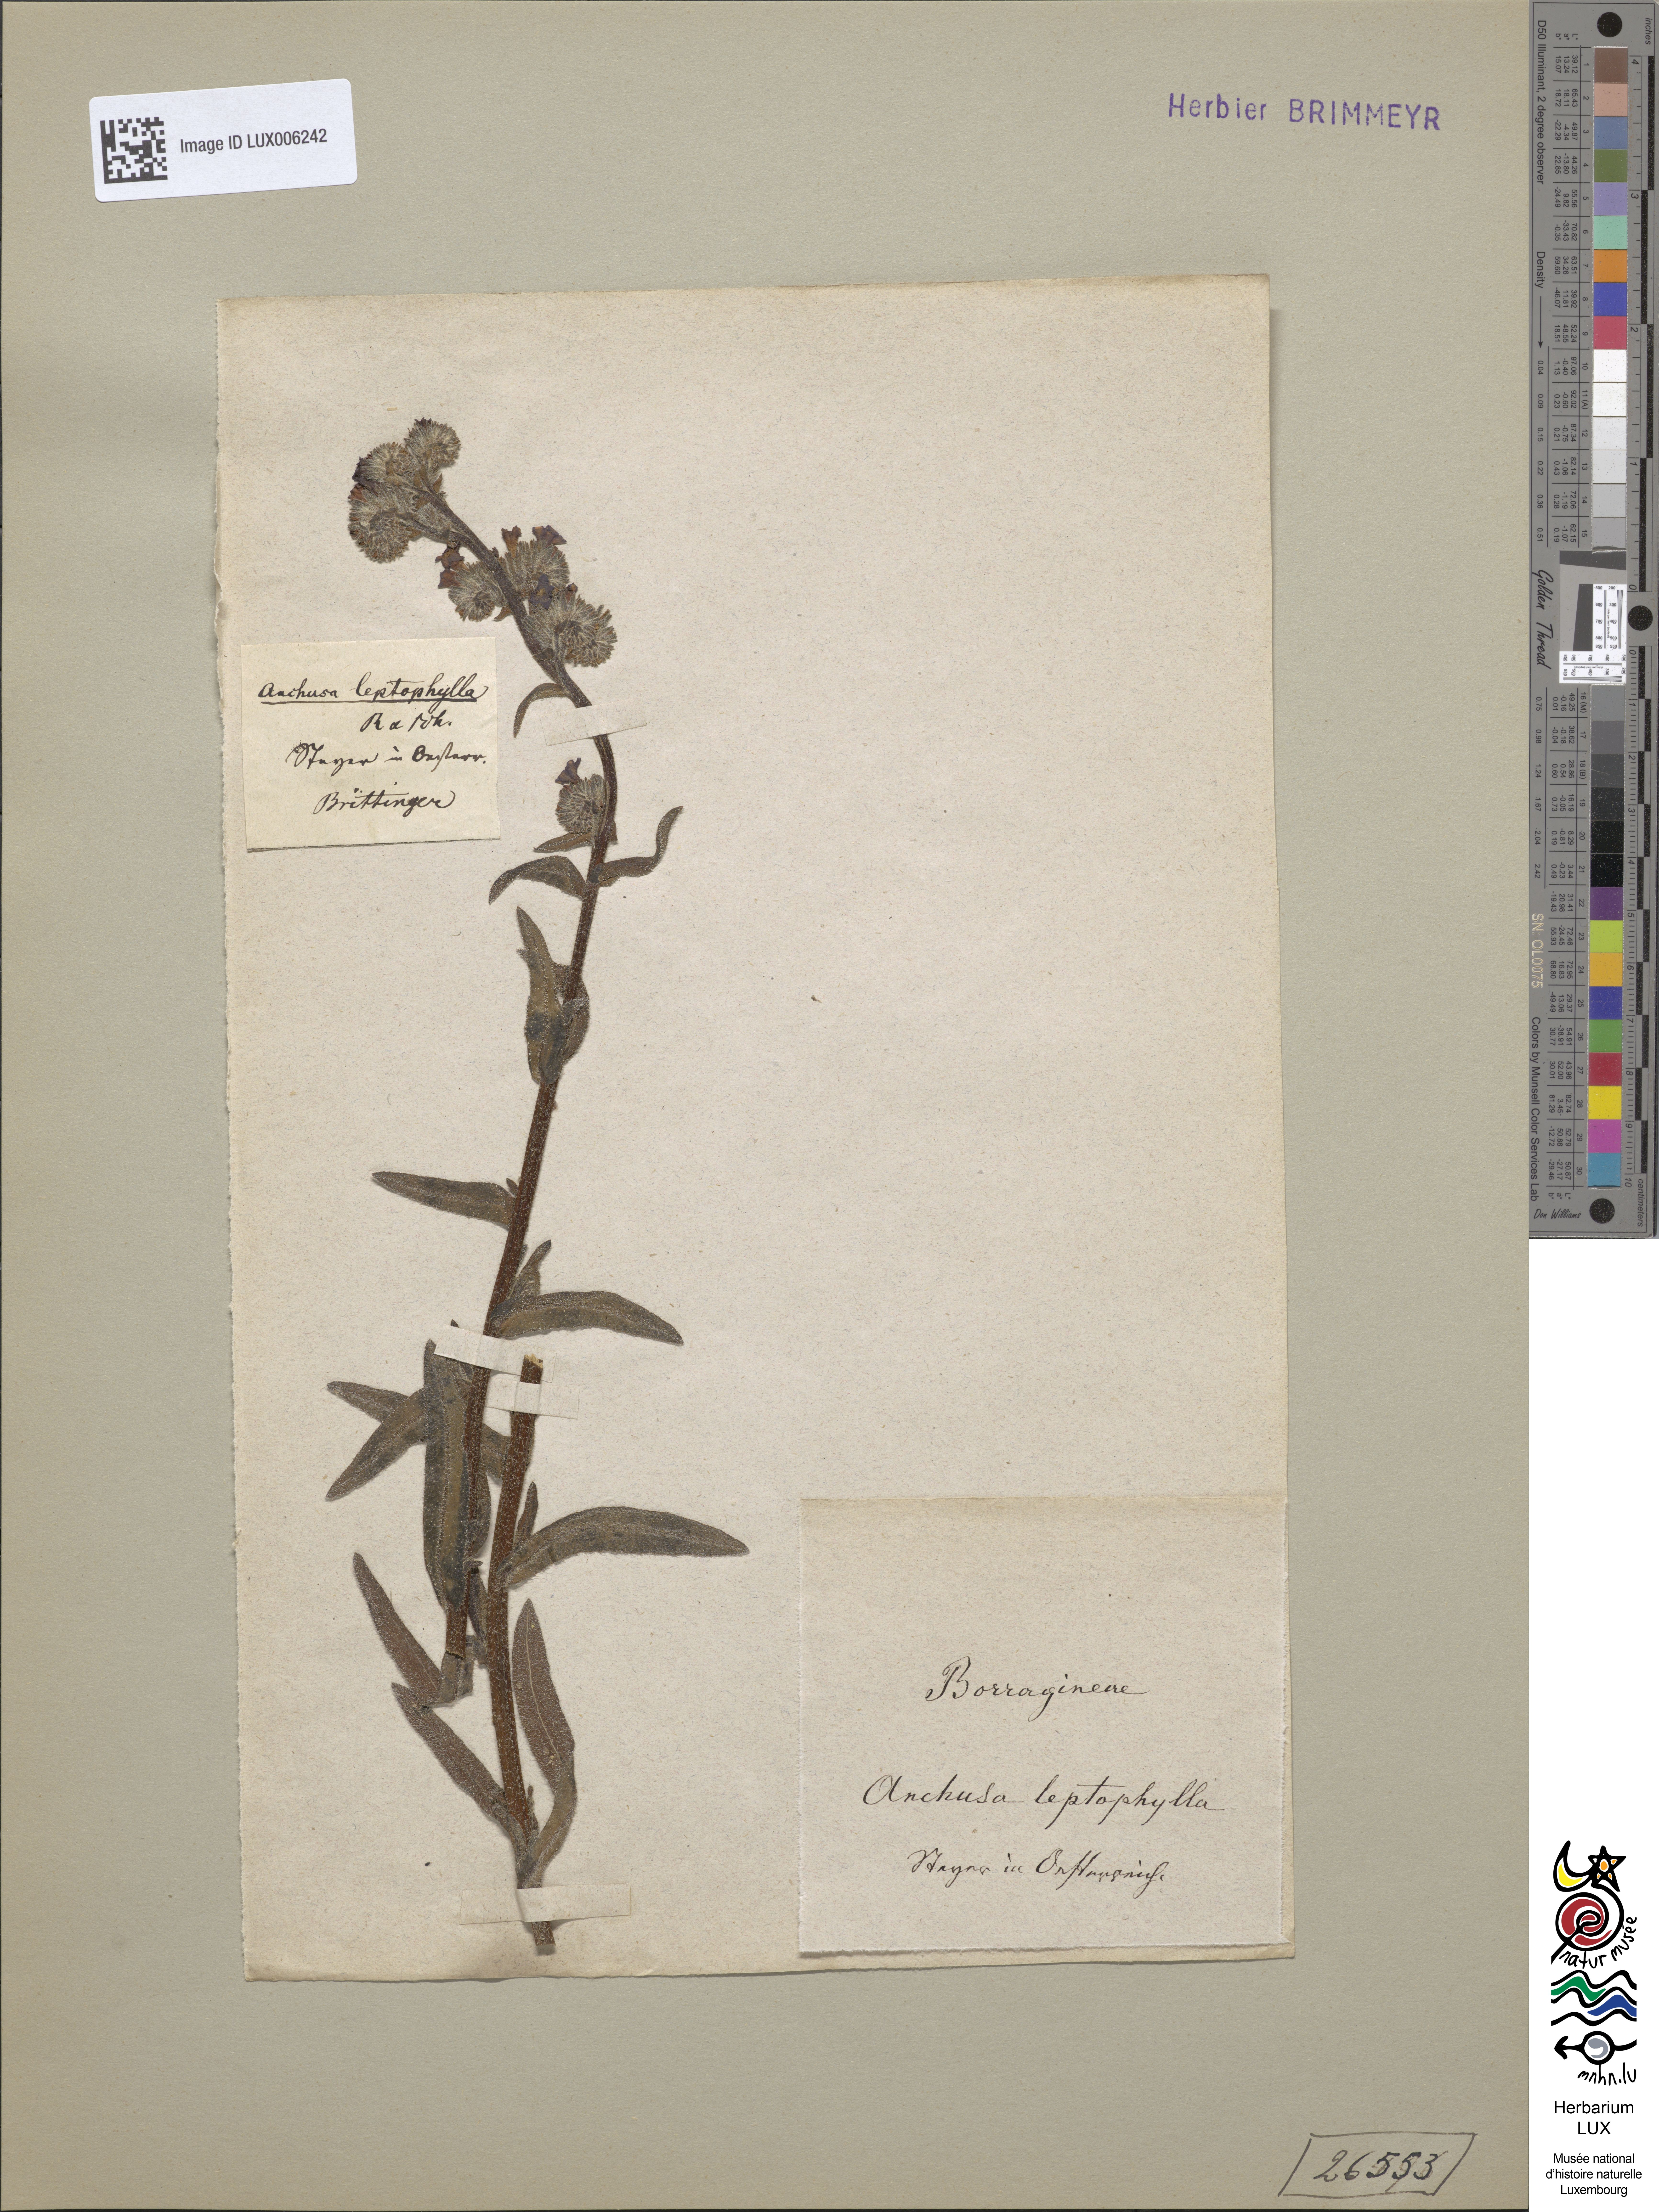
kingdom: Plantae
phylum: Tracheophyta
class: Magnoliopsida
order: Boraginales
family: Boraginaceae
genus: Anchusa
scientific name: Anchusa leptophylla
